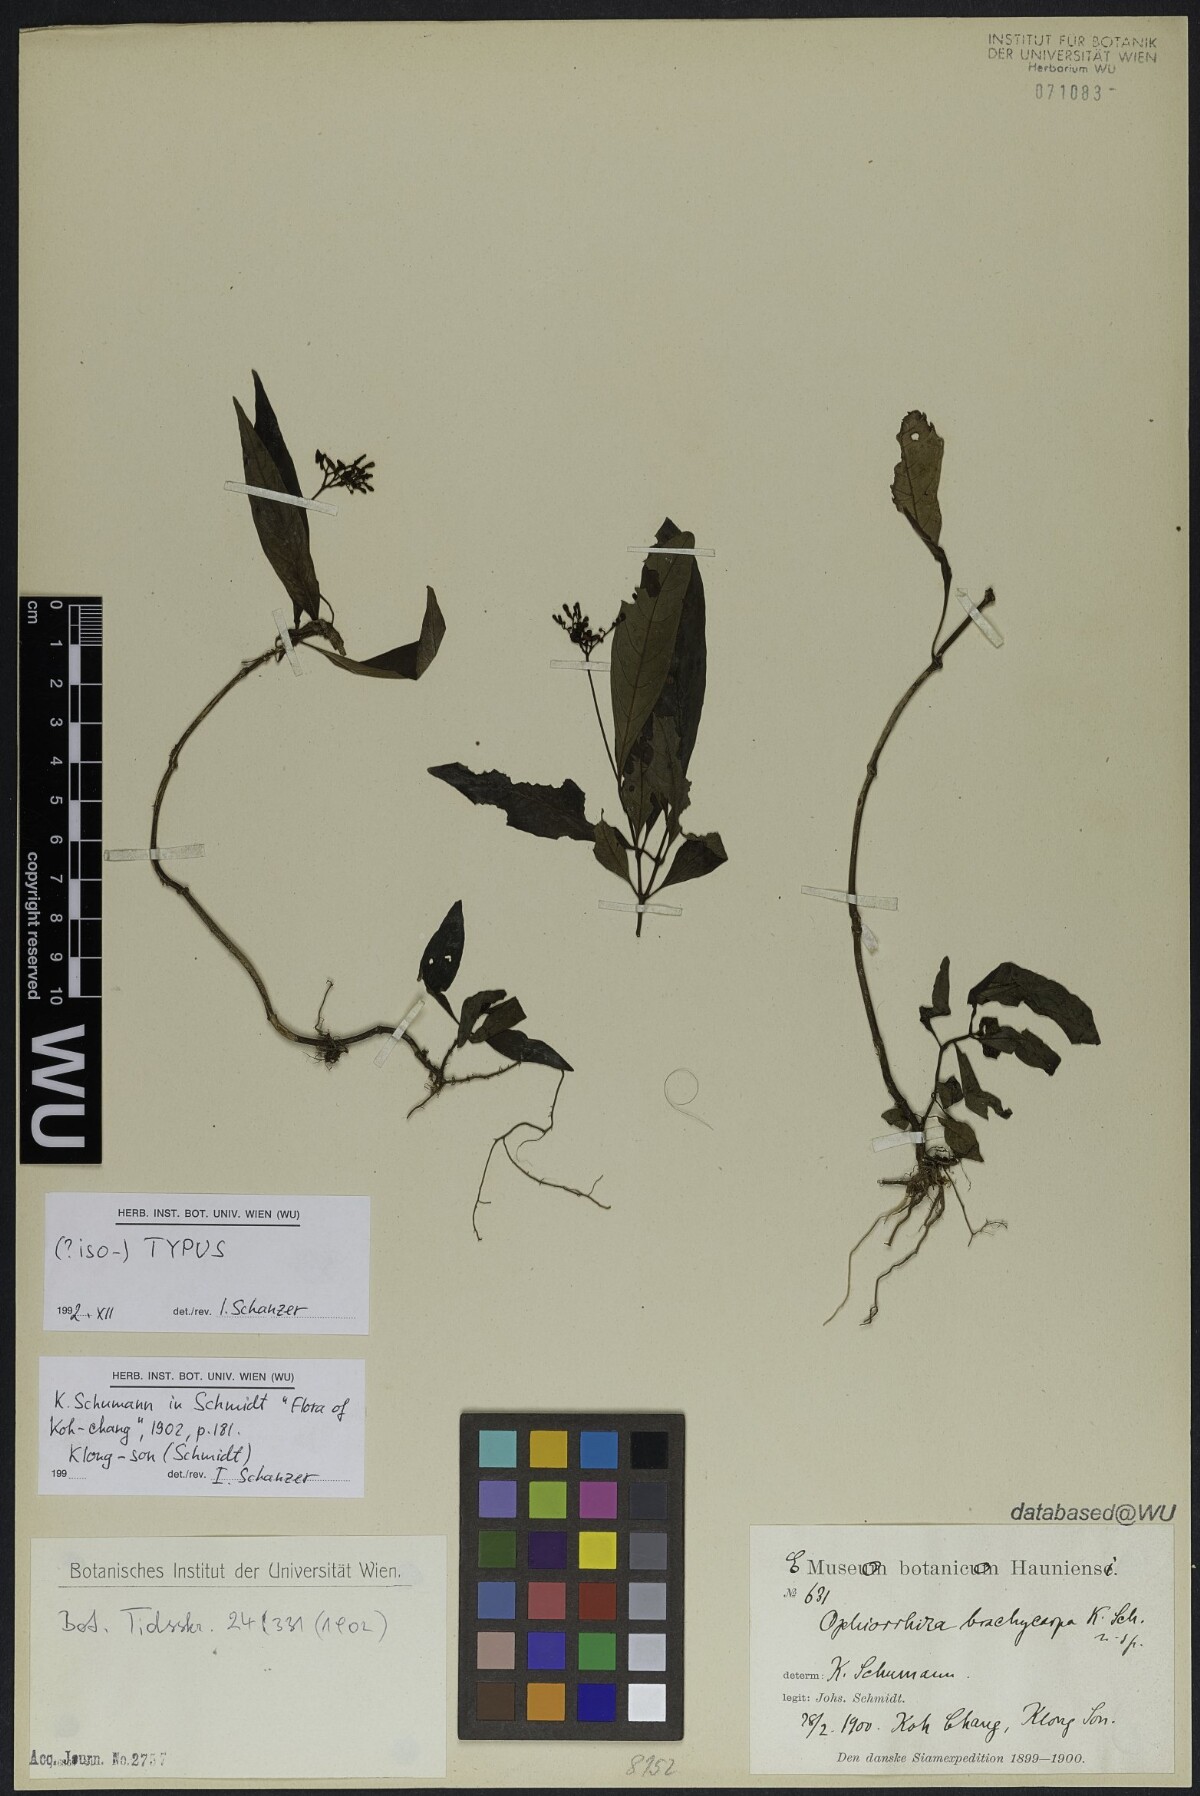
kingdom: Plantae
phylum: Tracheophyta
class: Magnoliopsida
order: Gentianales
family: Rubiaceae
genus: Ophiorrhiza
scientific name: Ophiorrhiza brachycarpa
